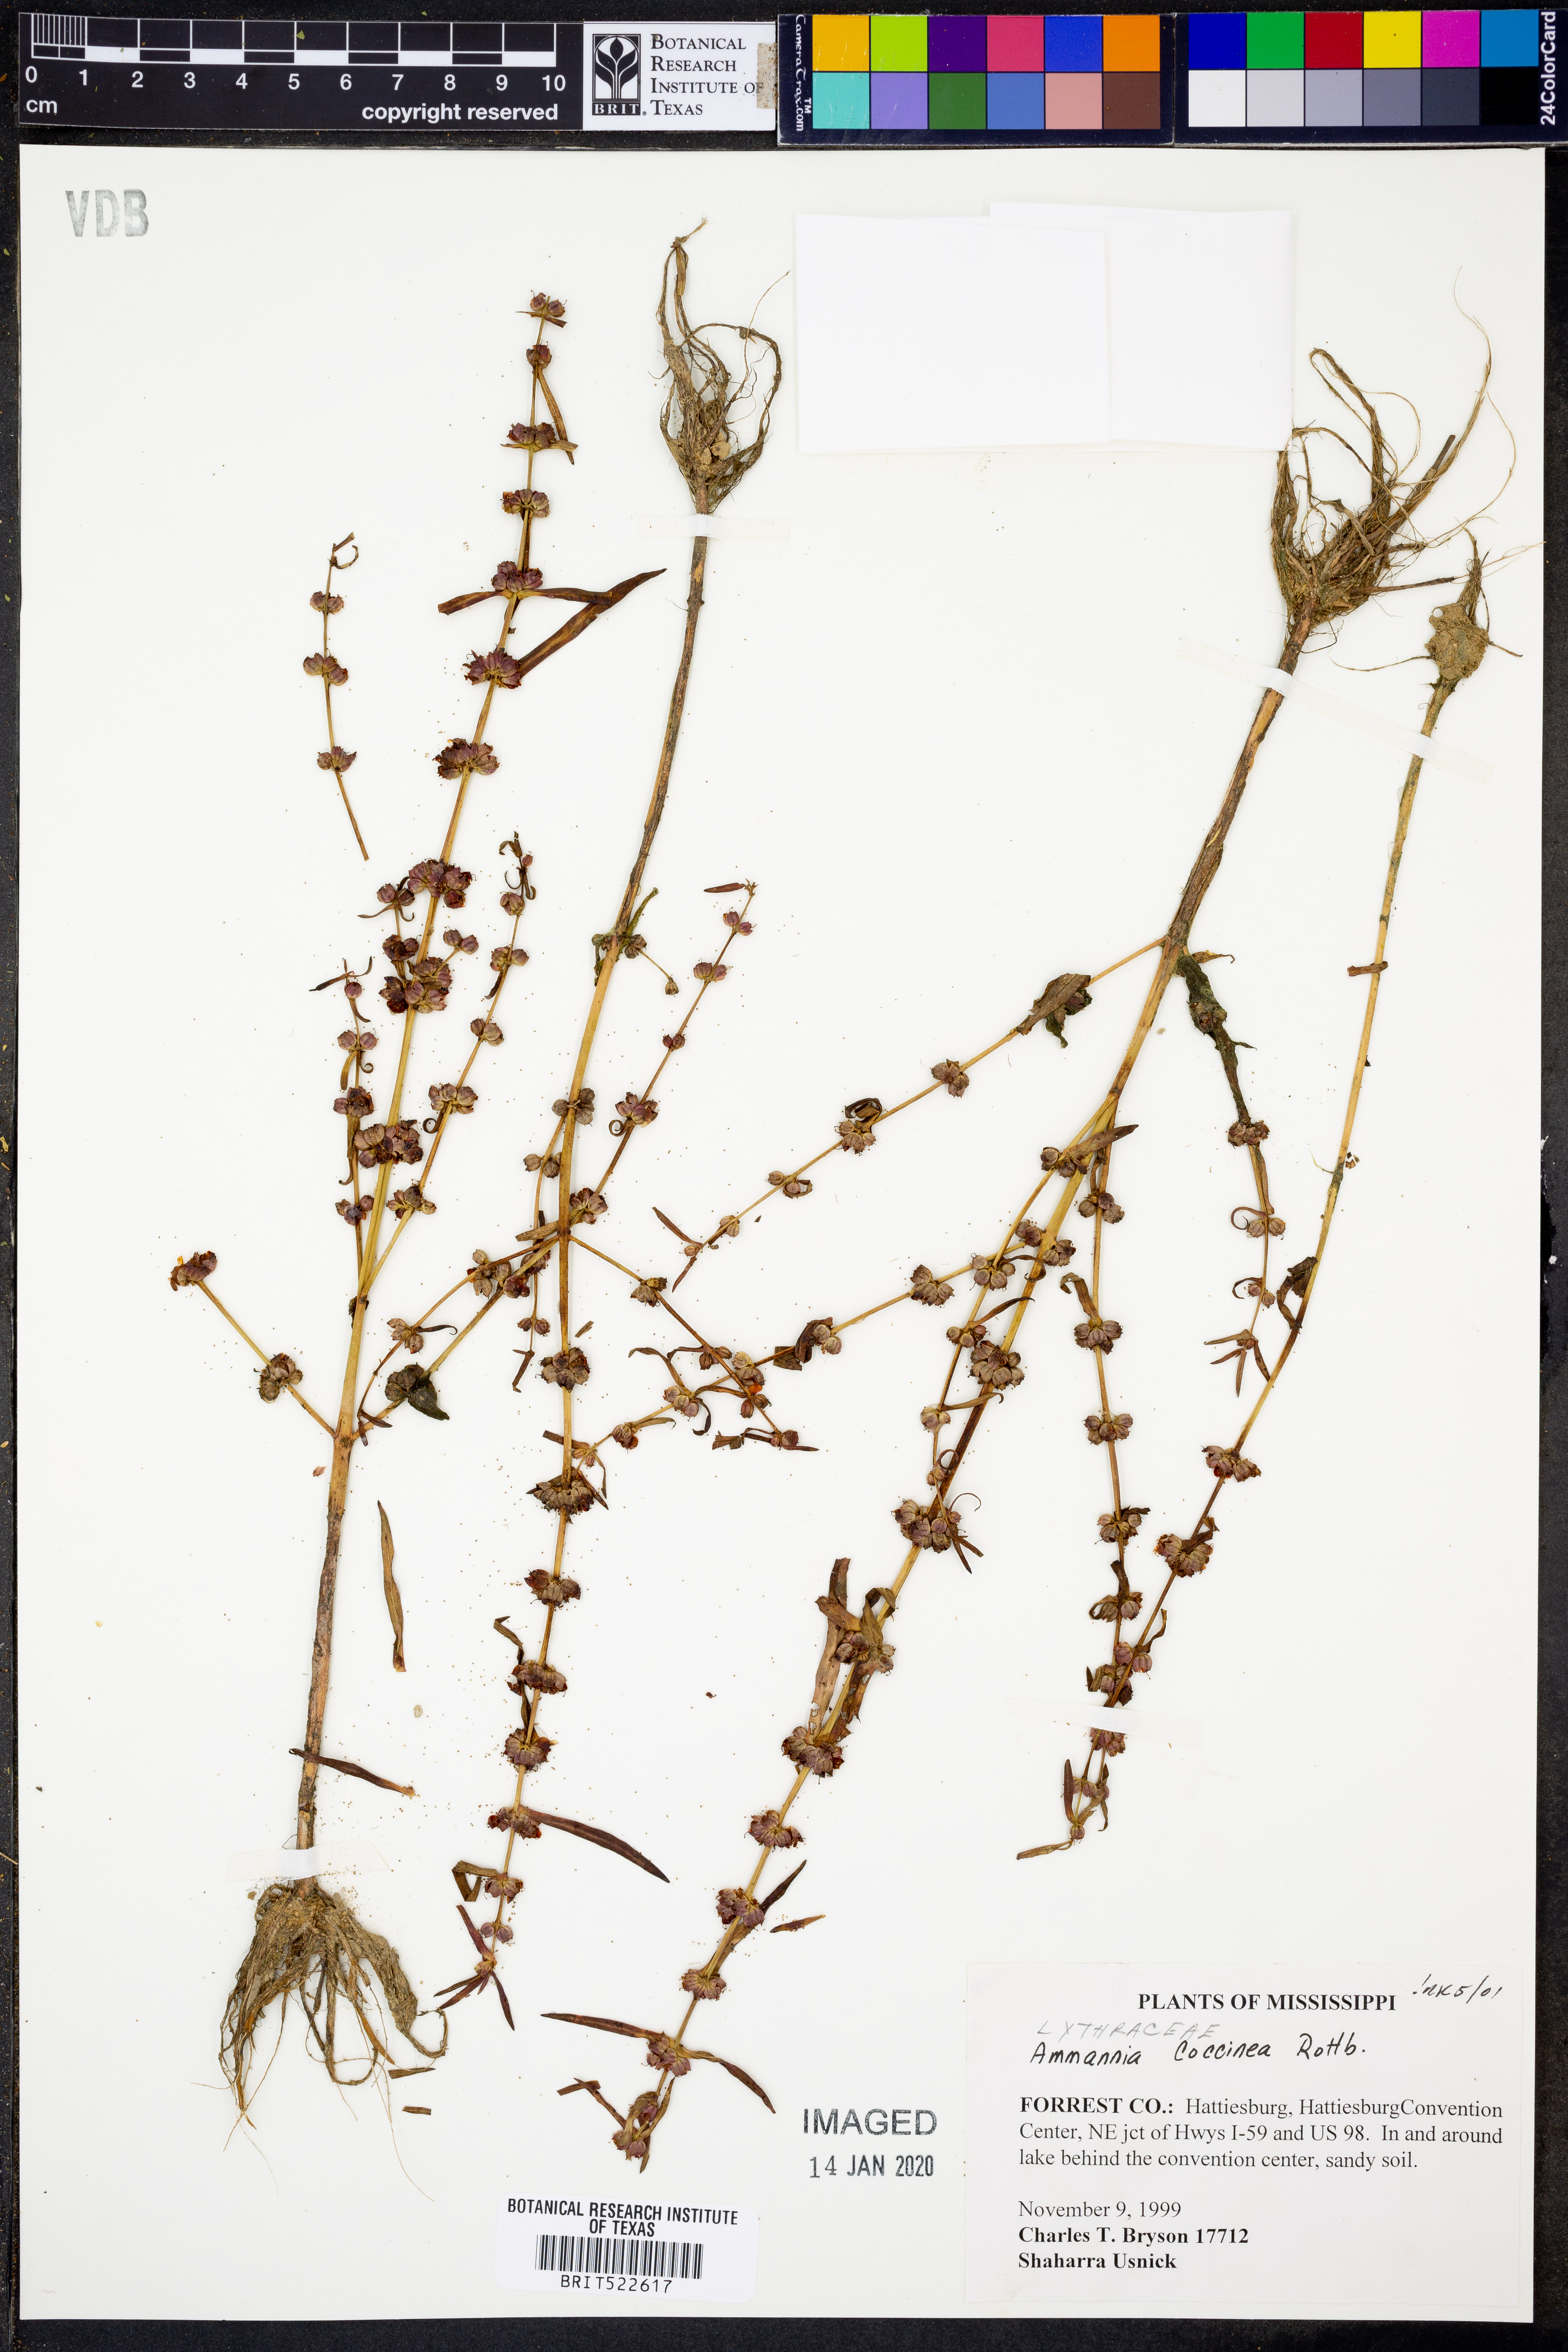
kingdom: Plantae
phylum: Tracheophyta
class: Magnoliopsida
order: Myrtales
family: Lythraceae
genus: Ammannia
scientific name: Ammannia coccinea
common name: Valley redstem
